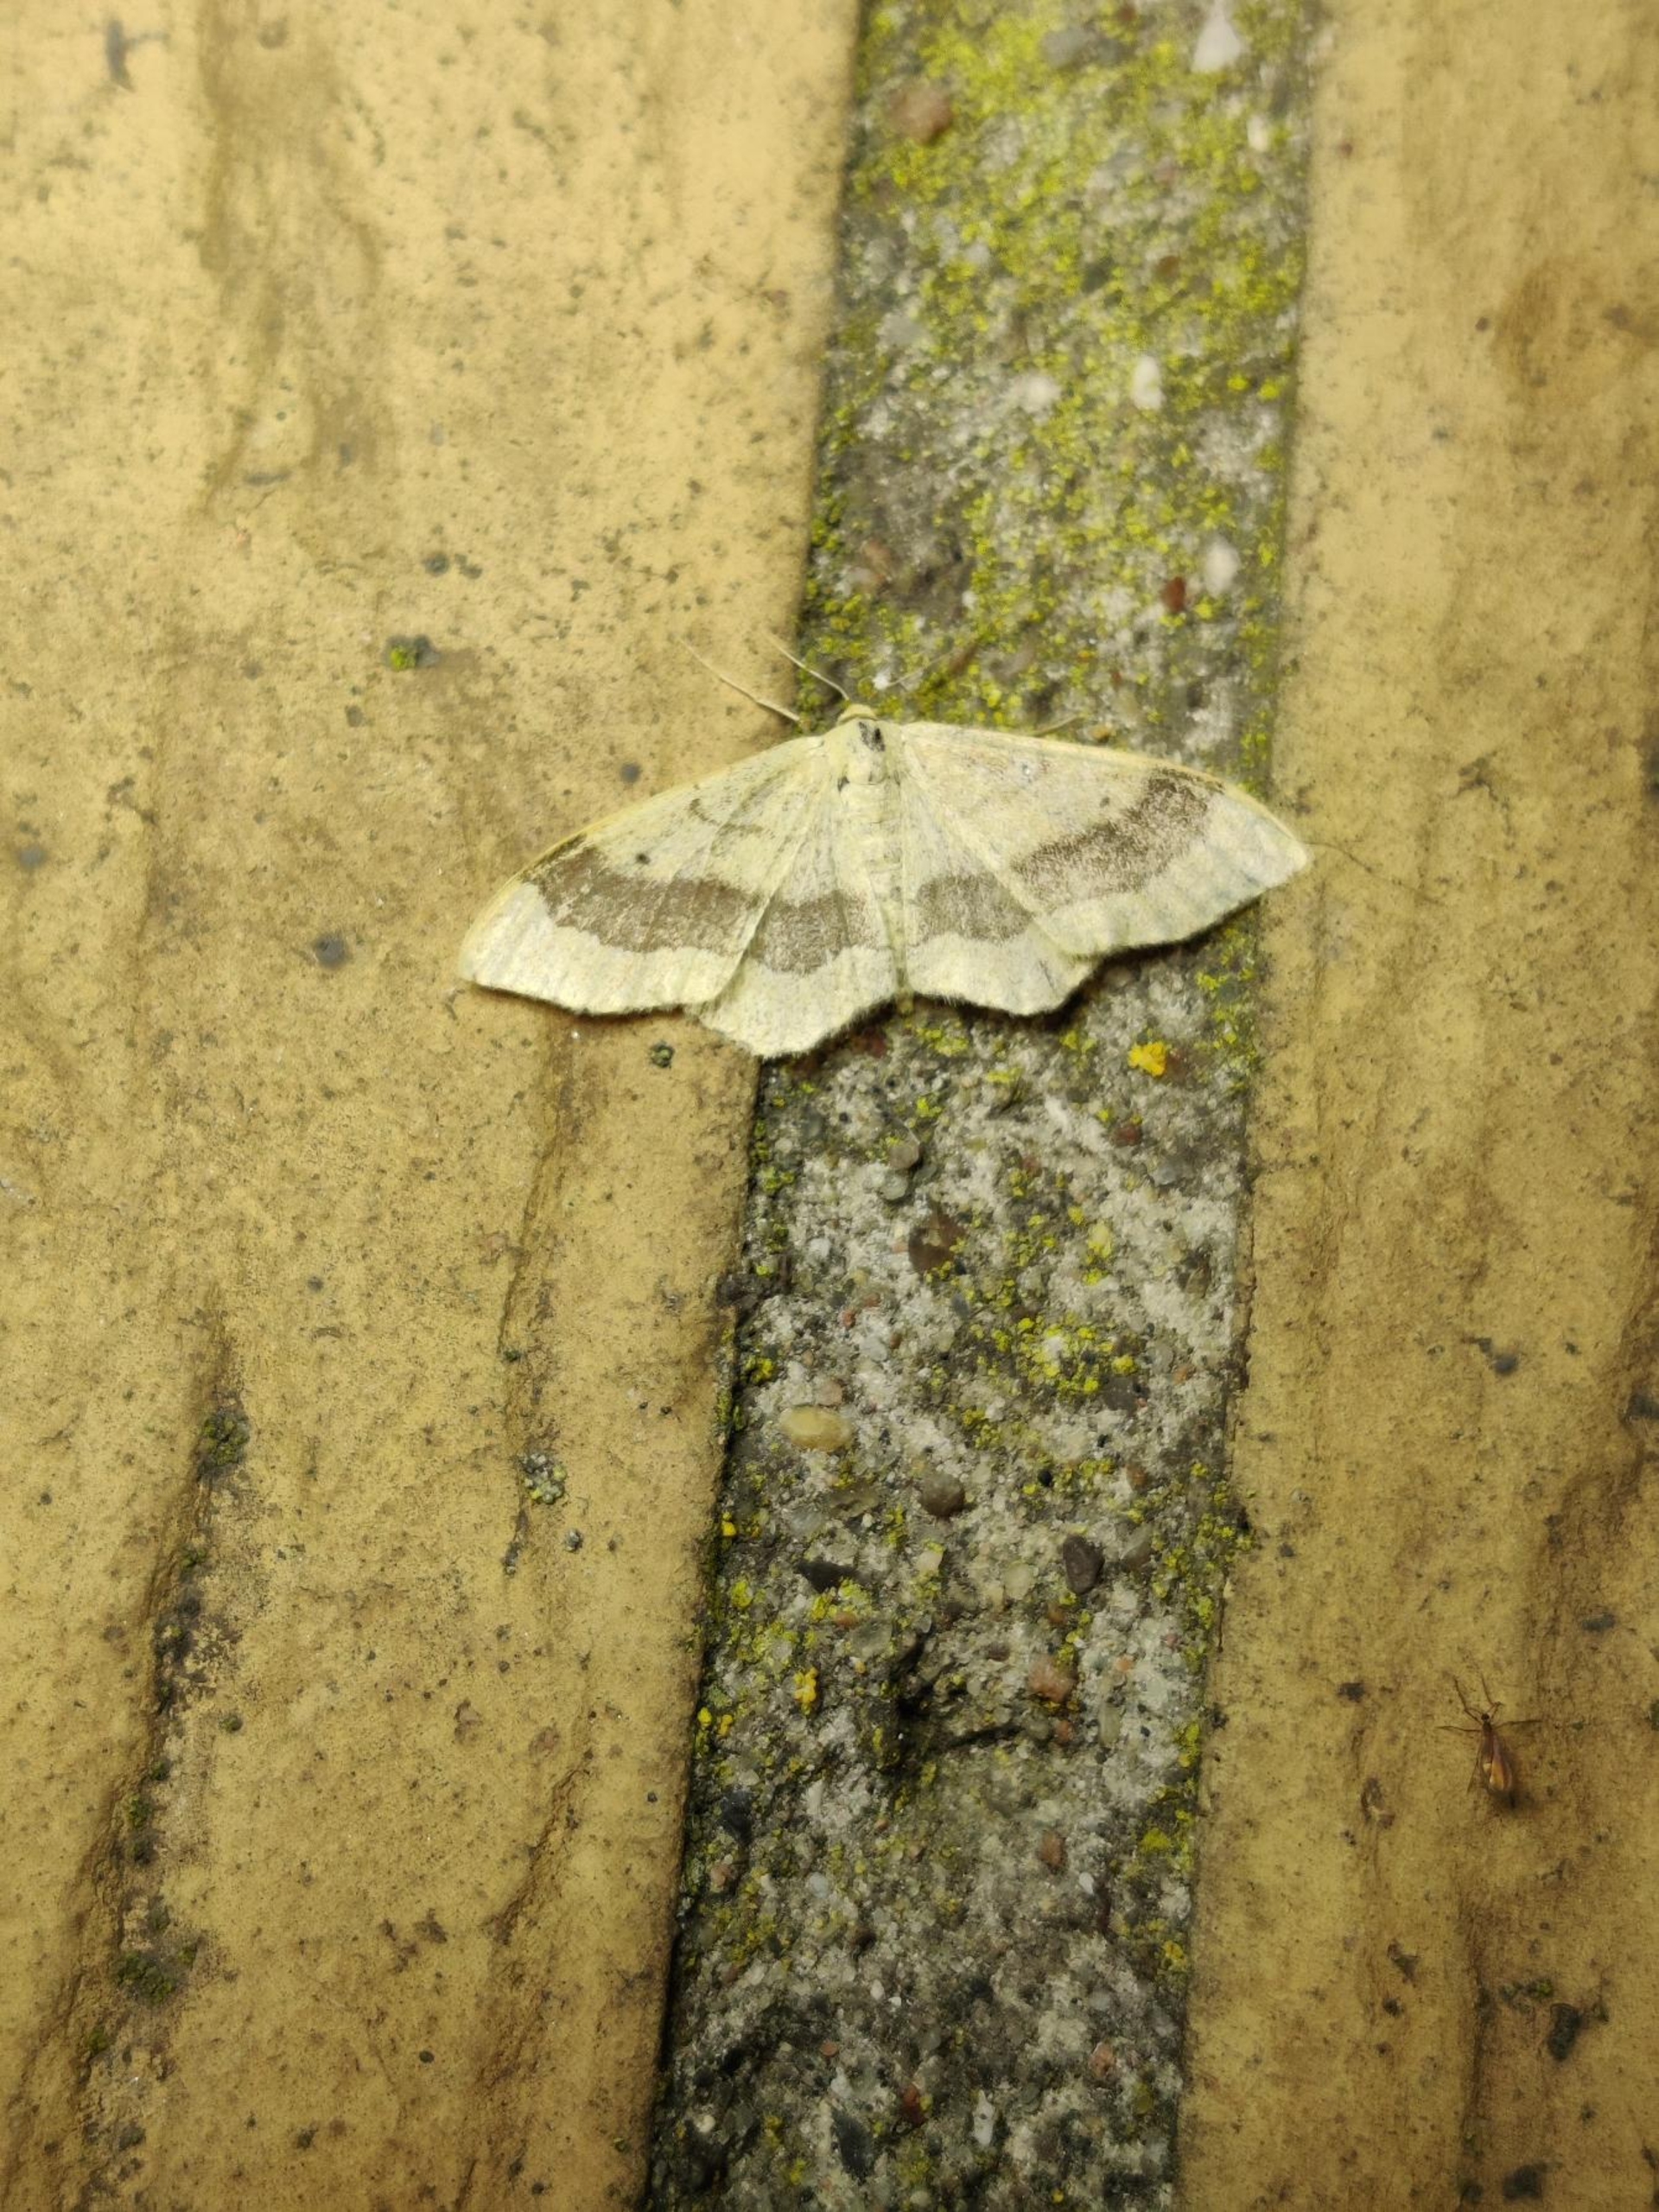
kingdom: Animalia
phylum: Arthropoda
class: Insecta
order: Lepidoptera
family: Geometridae
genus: Idaea
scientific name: Idaea aversata
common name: Vinkelstreget løvmåler
